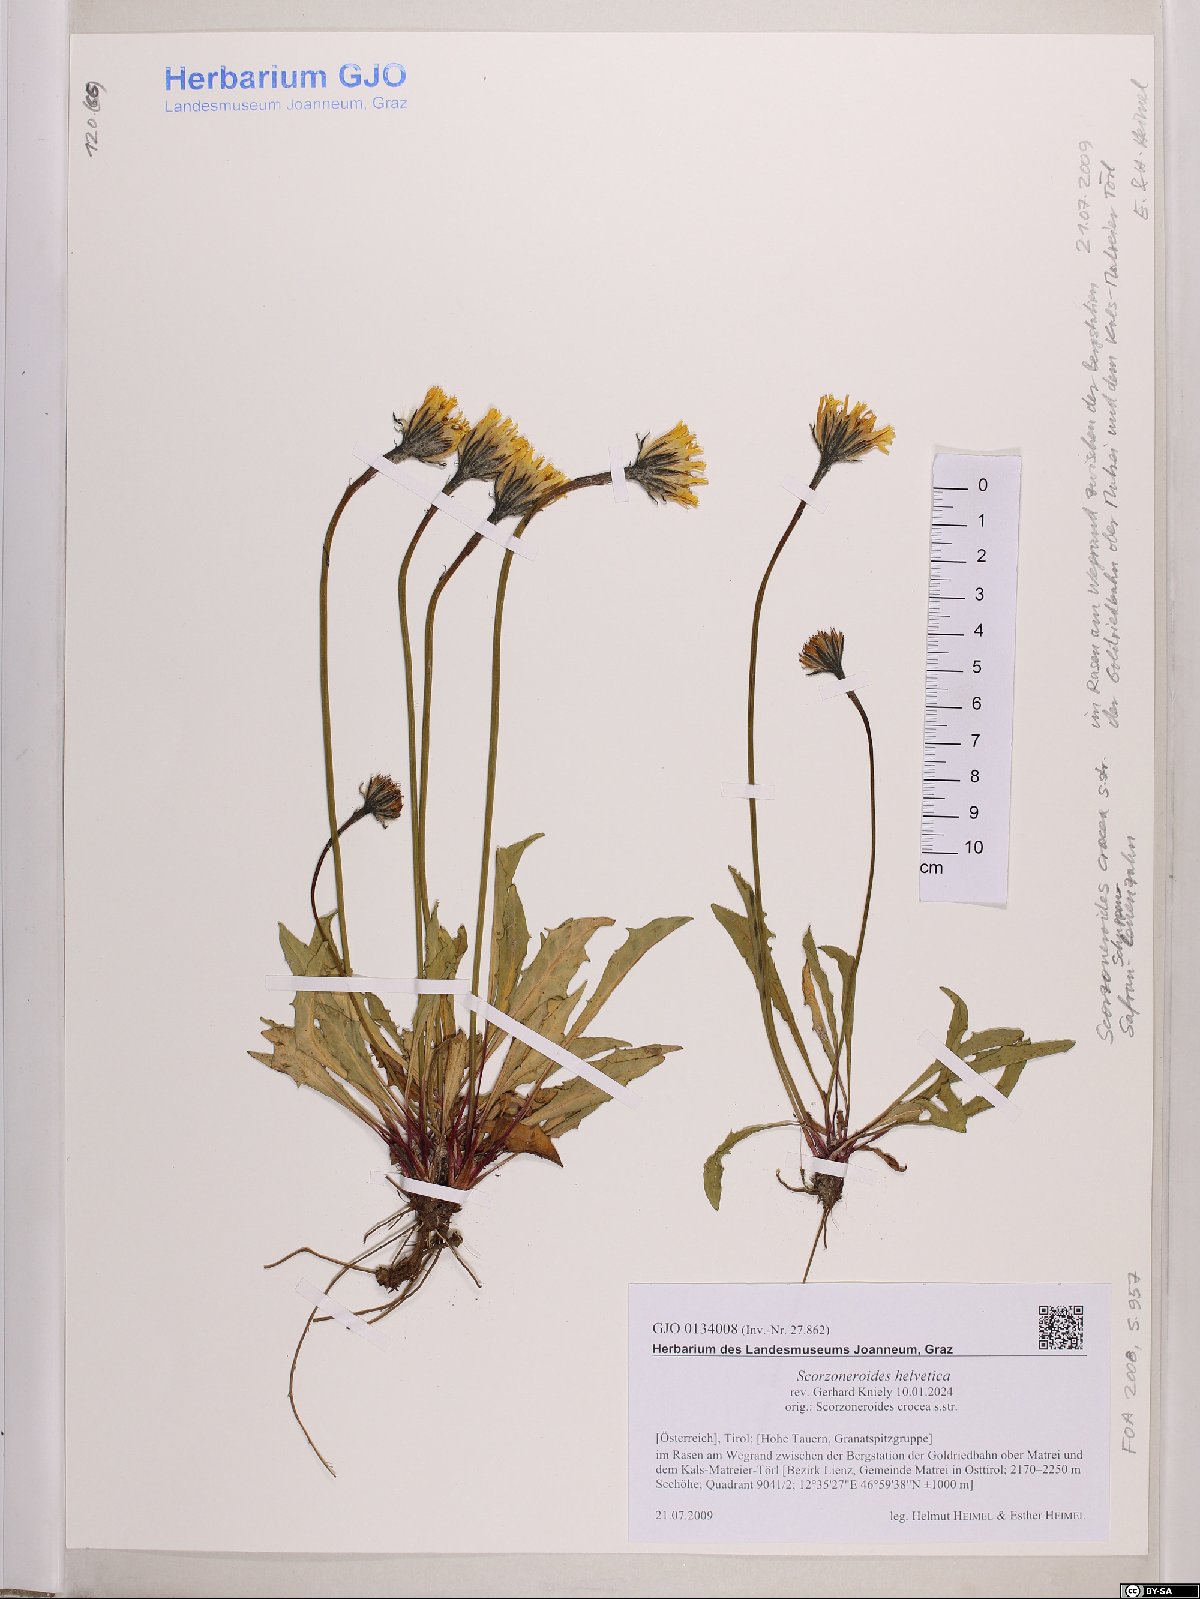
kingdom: Plantae
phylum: Tracheophyta
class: Magnoliopsida
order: Asterales
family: Asteraceae
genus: Scorzoneroides
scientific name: Scorzoneroides helvetica
